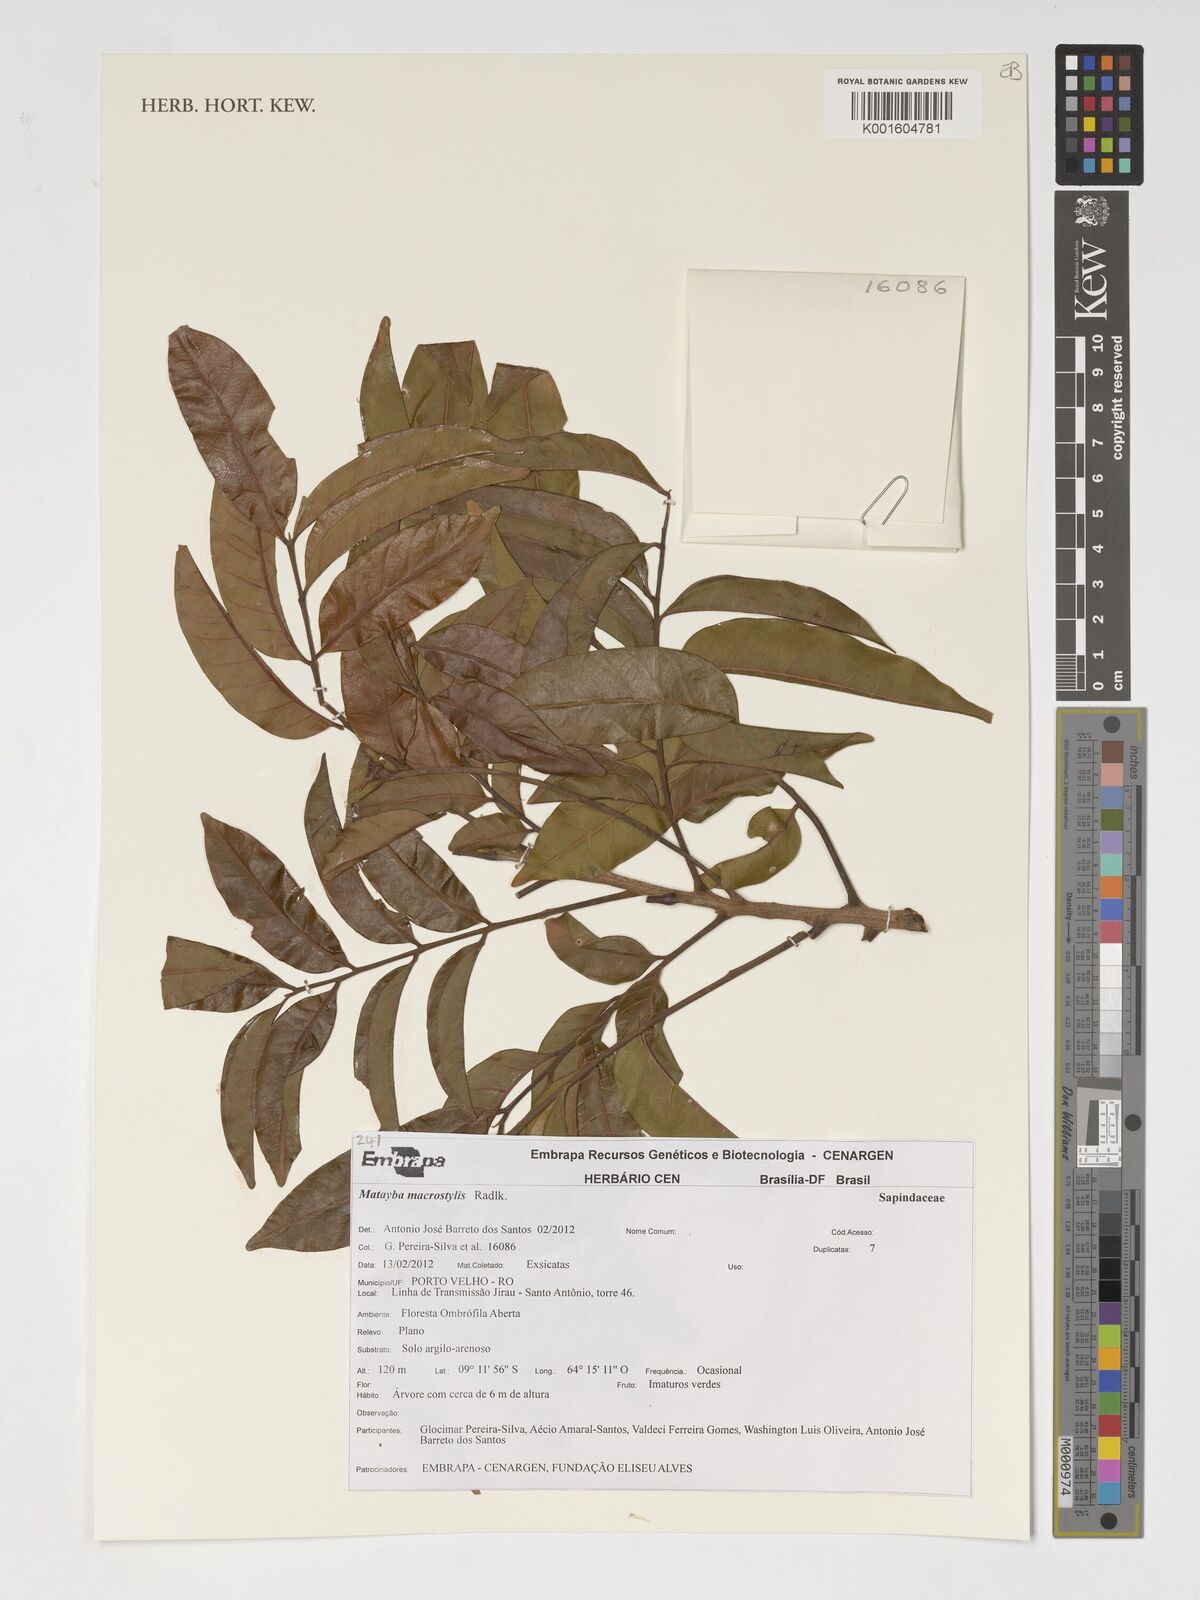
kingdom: Plantae
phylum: Tracheophyta
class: Magnoliopsida
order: Sapindales
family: Sapindaceae
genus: Cupania
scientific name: Cupania macrostylis
